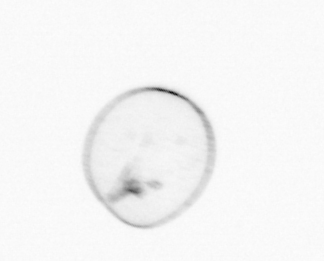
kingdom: Chromista
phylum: Myzozoa
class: Dinophyceae
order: Noctilucales
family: Noctilucaceae
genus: Noctiluca
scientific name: Noctiluca scintillans
